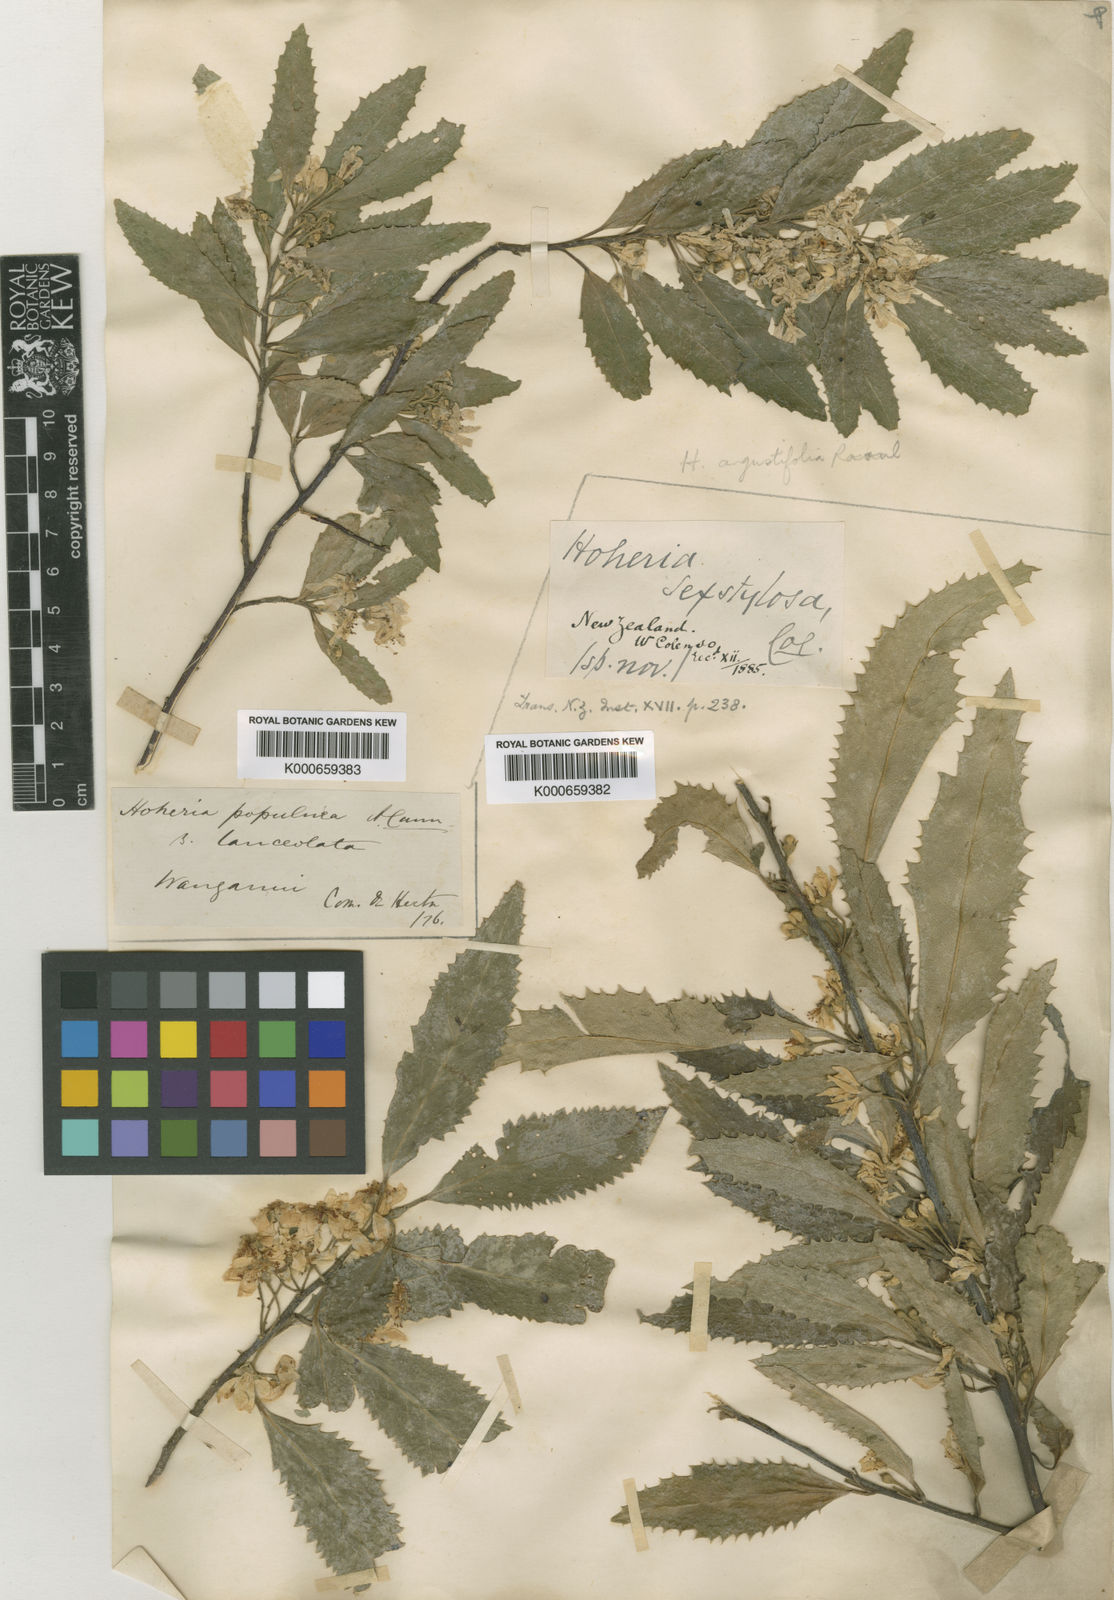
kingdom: Plantae
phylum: Tracheophyta
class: Magnoliopsida
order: Malvales
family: Malvaceae
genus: Hoheria
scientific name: Hoheria sexstylosa
